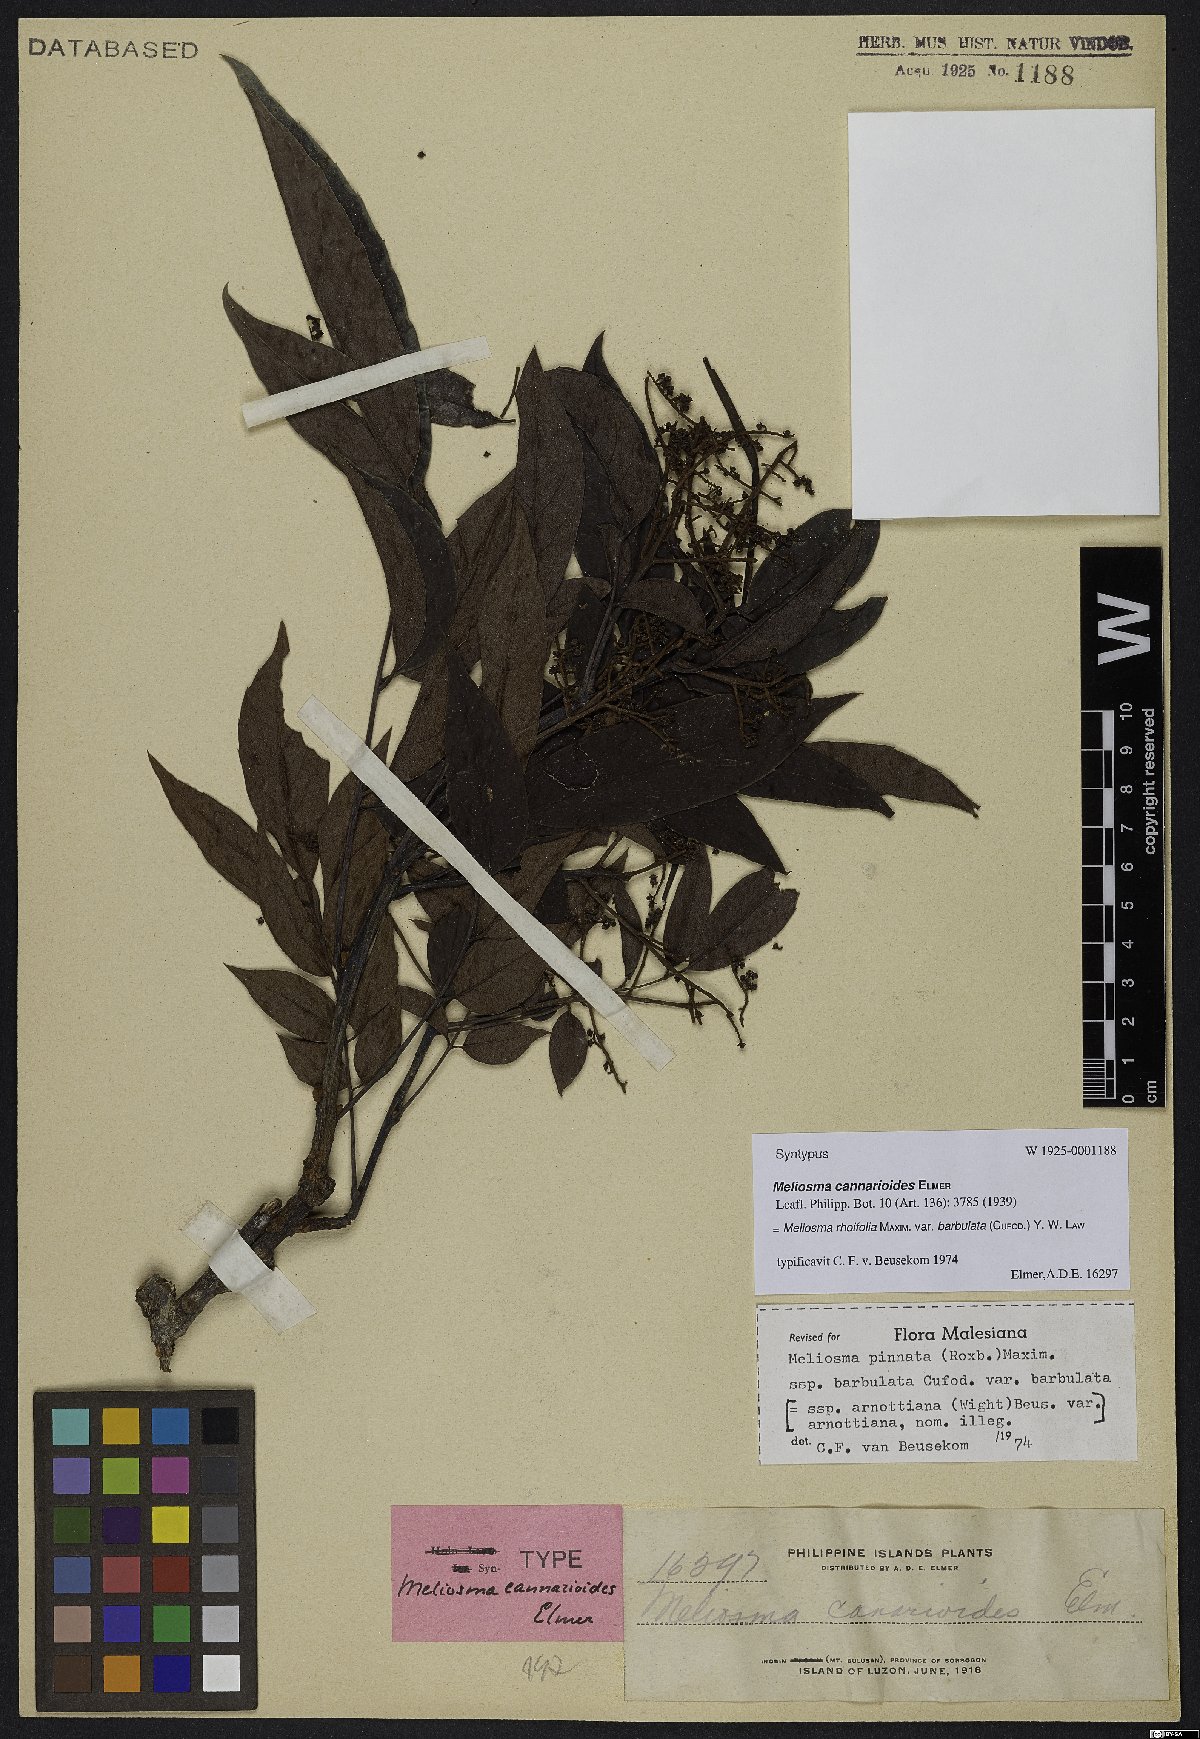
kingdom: Plantae
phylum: Tracheophyta
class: Magnoliopsida
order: Proteales
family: Sabiaceae
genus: Meliosma
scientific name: Meliosma rhoifolia
